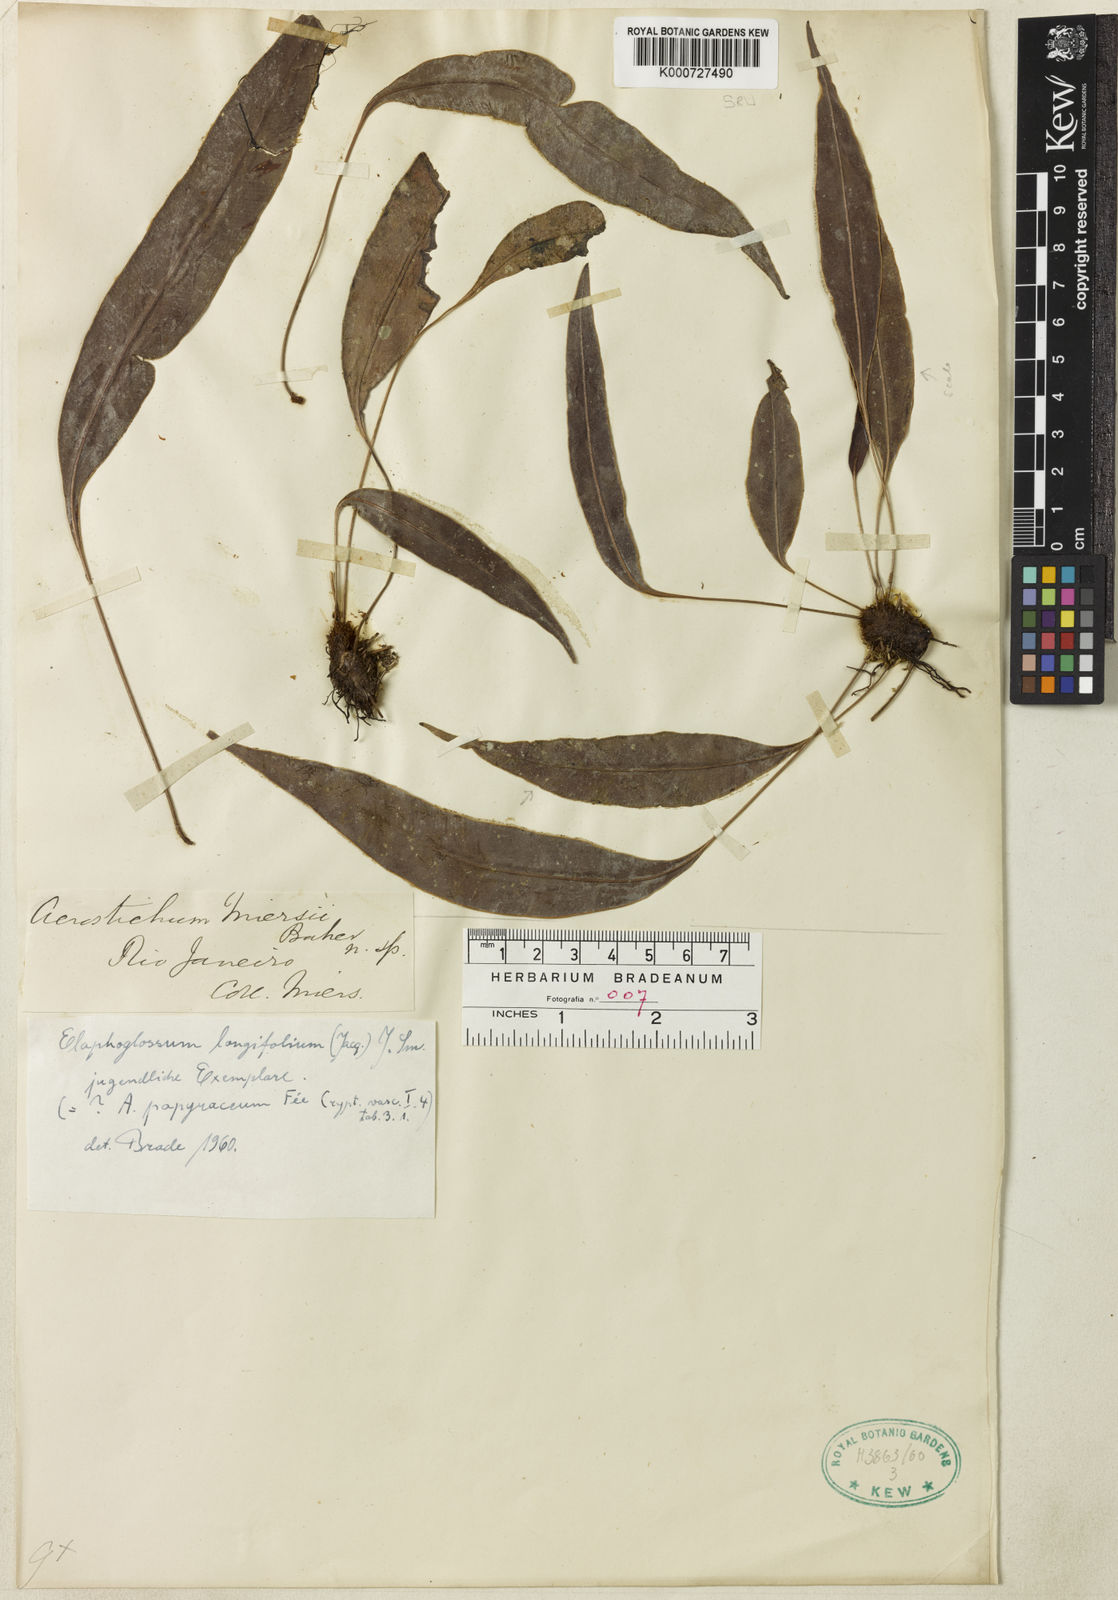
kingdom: Plantae
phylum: Tracheophyta
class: Polypodiopsida
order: Polypodiales
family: Dryopteridaceae
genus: Elaphoglossum
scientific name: Elaphoglossum miersii
